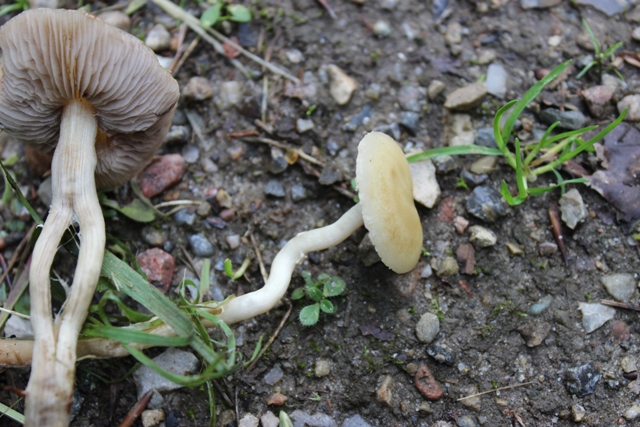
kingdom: Fungi
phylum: Basidiomycota
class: Agaricomycetes
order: Agaricales
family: Strophariaceae
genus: Agrocybe
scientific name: Agrocybe praecox
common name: tidlig agerhat
